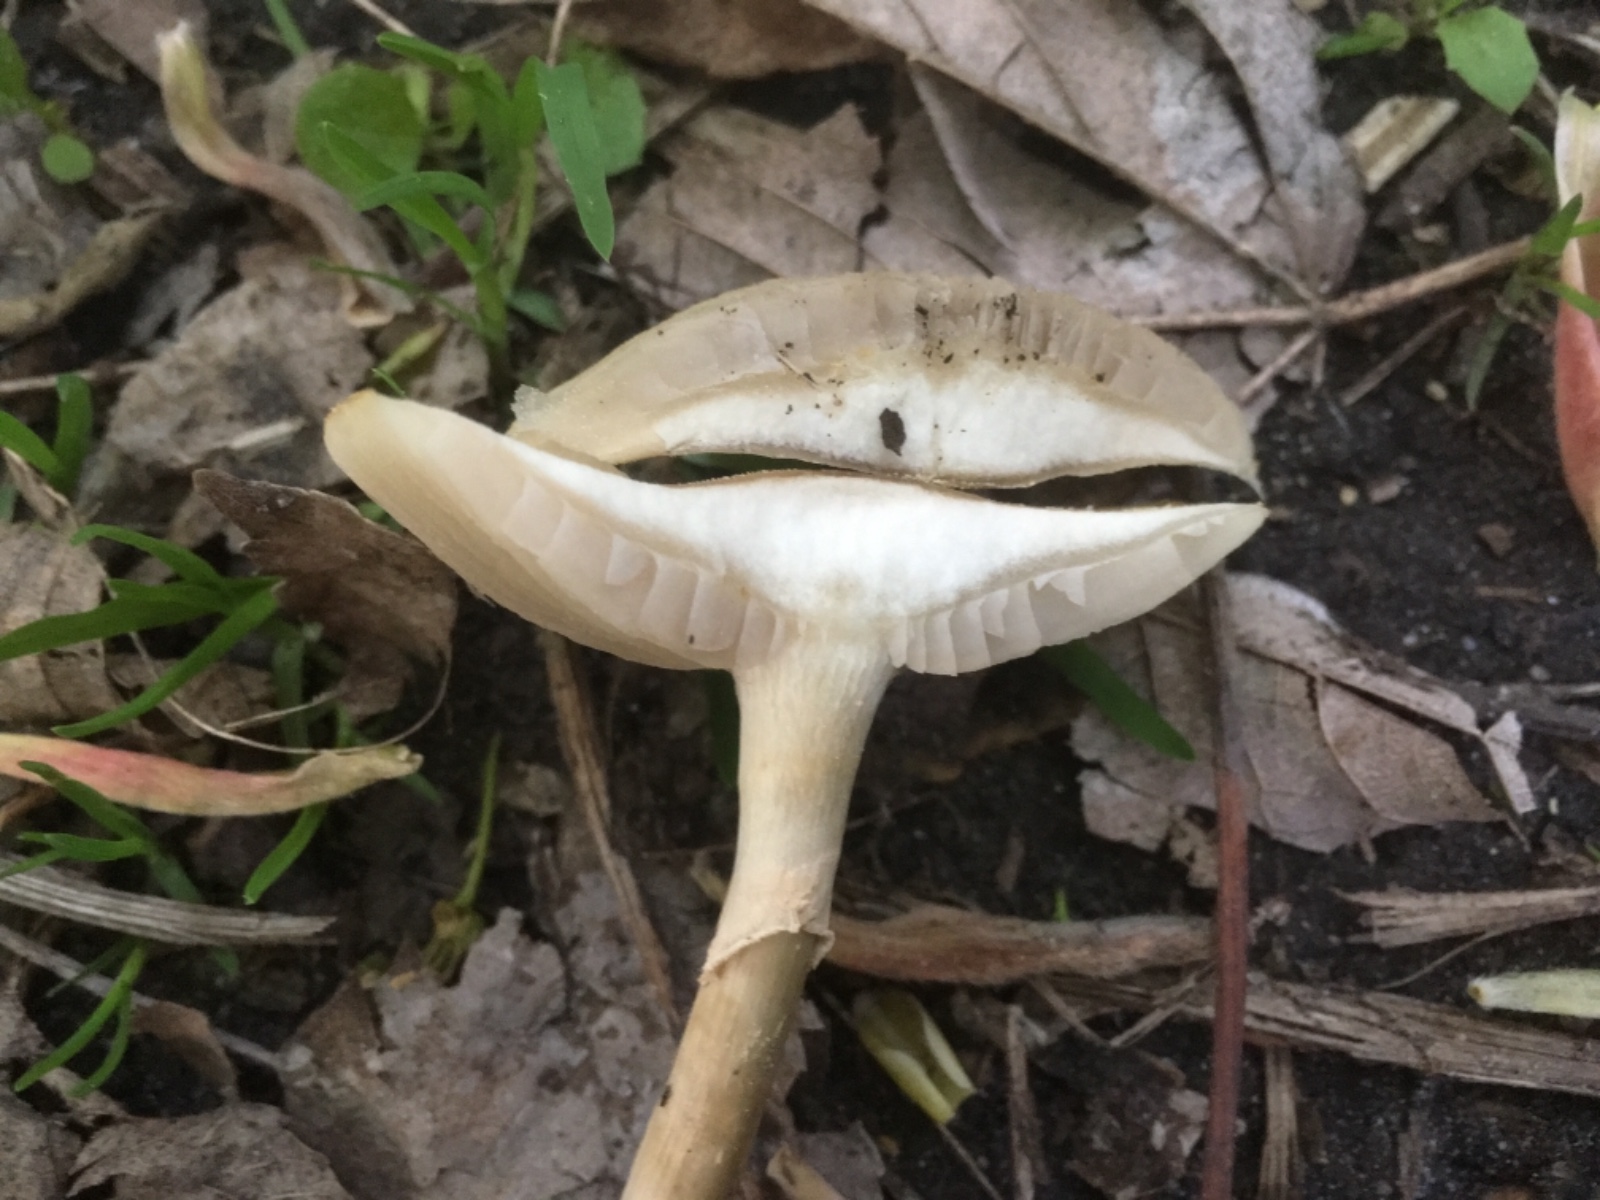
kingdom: Fungi
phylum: Basidiomycota
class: Agaricomycetes
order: Agaricales
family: Strophariaceae
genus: Agrocybe
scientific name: Agrocybe praecox
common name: tidlig agerhat
